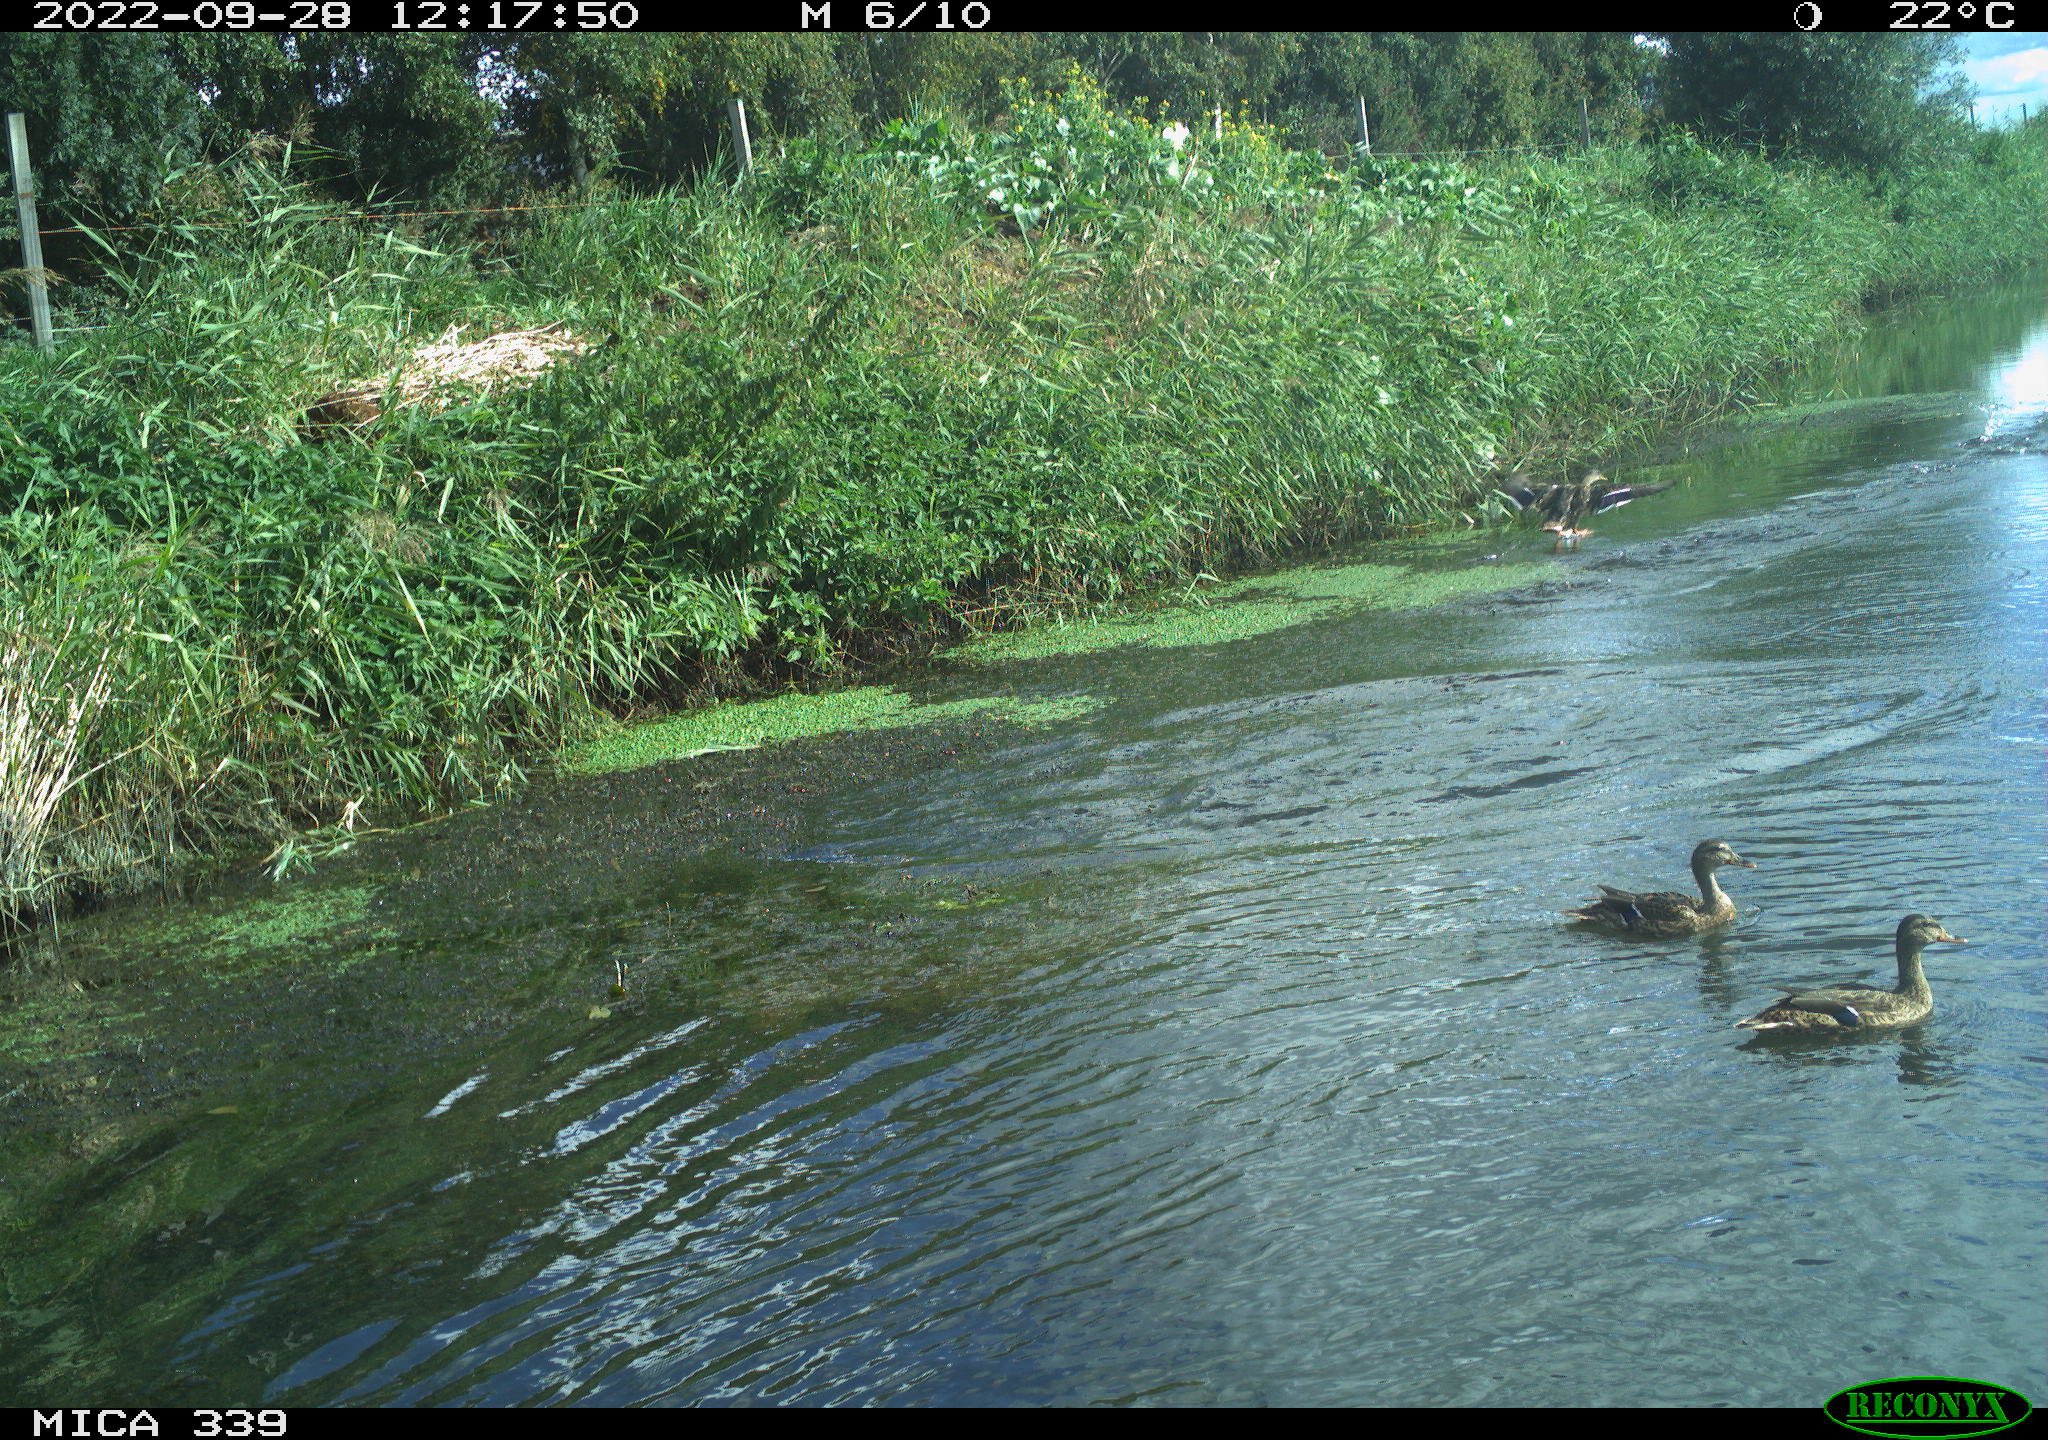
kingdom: Animalia
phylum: Chordata
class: Aves
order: Anseriformes
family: Anatidae
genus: Anas
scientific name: Anas platyrhynchos
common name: Mallard
